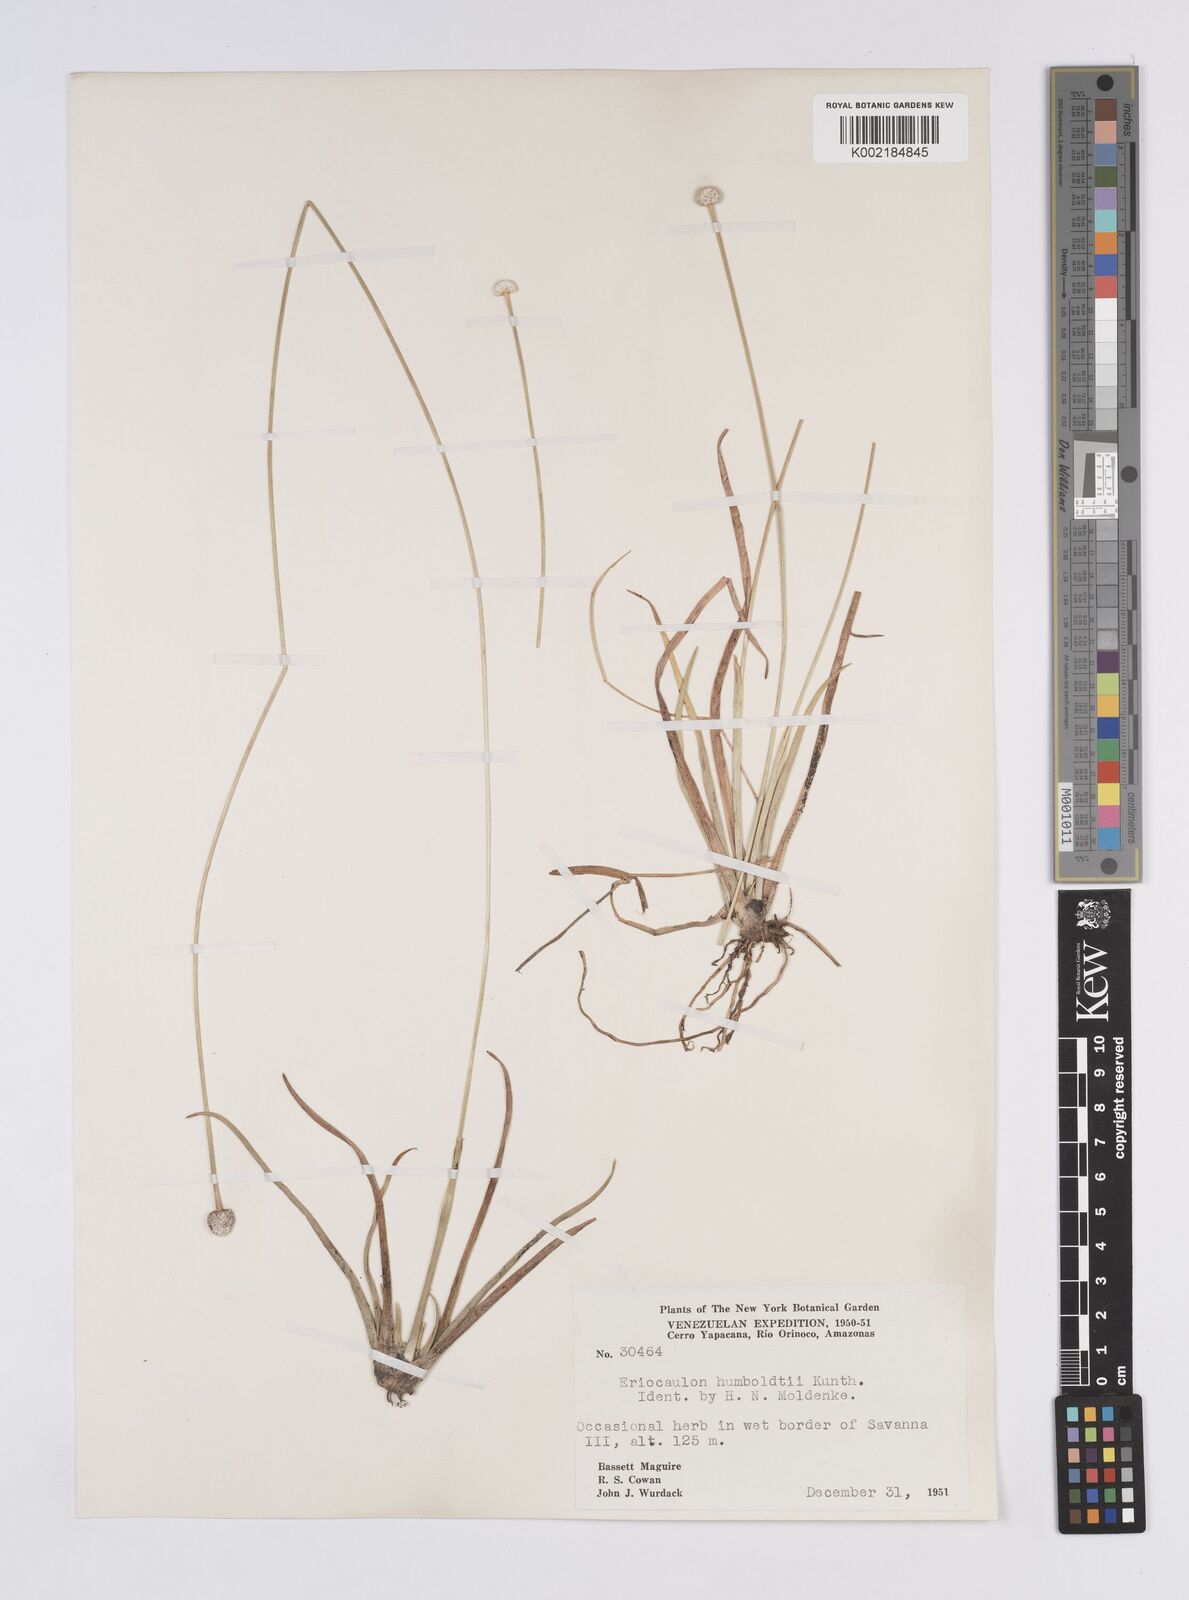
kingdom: Plantae
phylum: Tracheophyta
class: Liliopsida
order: Poales
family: Eriocaulaceae
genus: Eriocaulon
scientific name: Eriocaulon humboldtii
